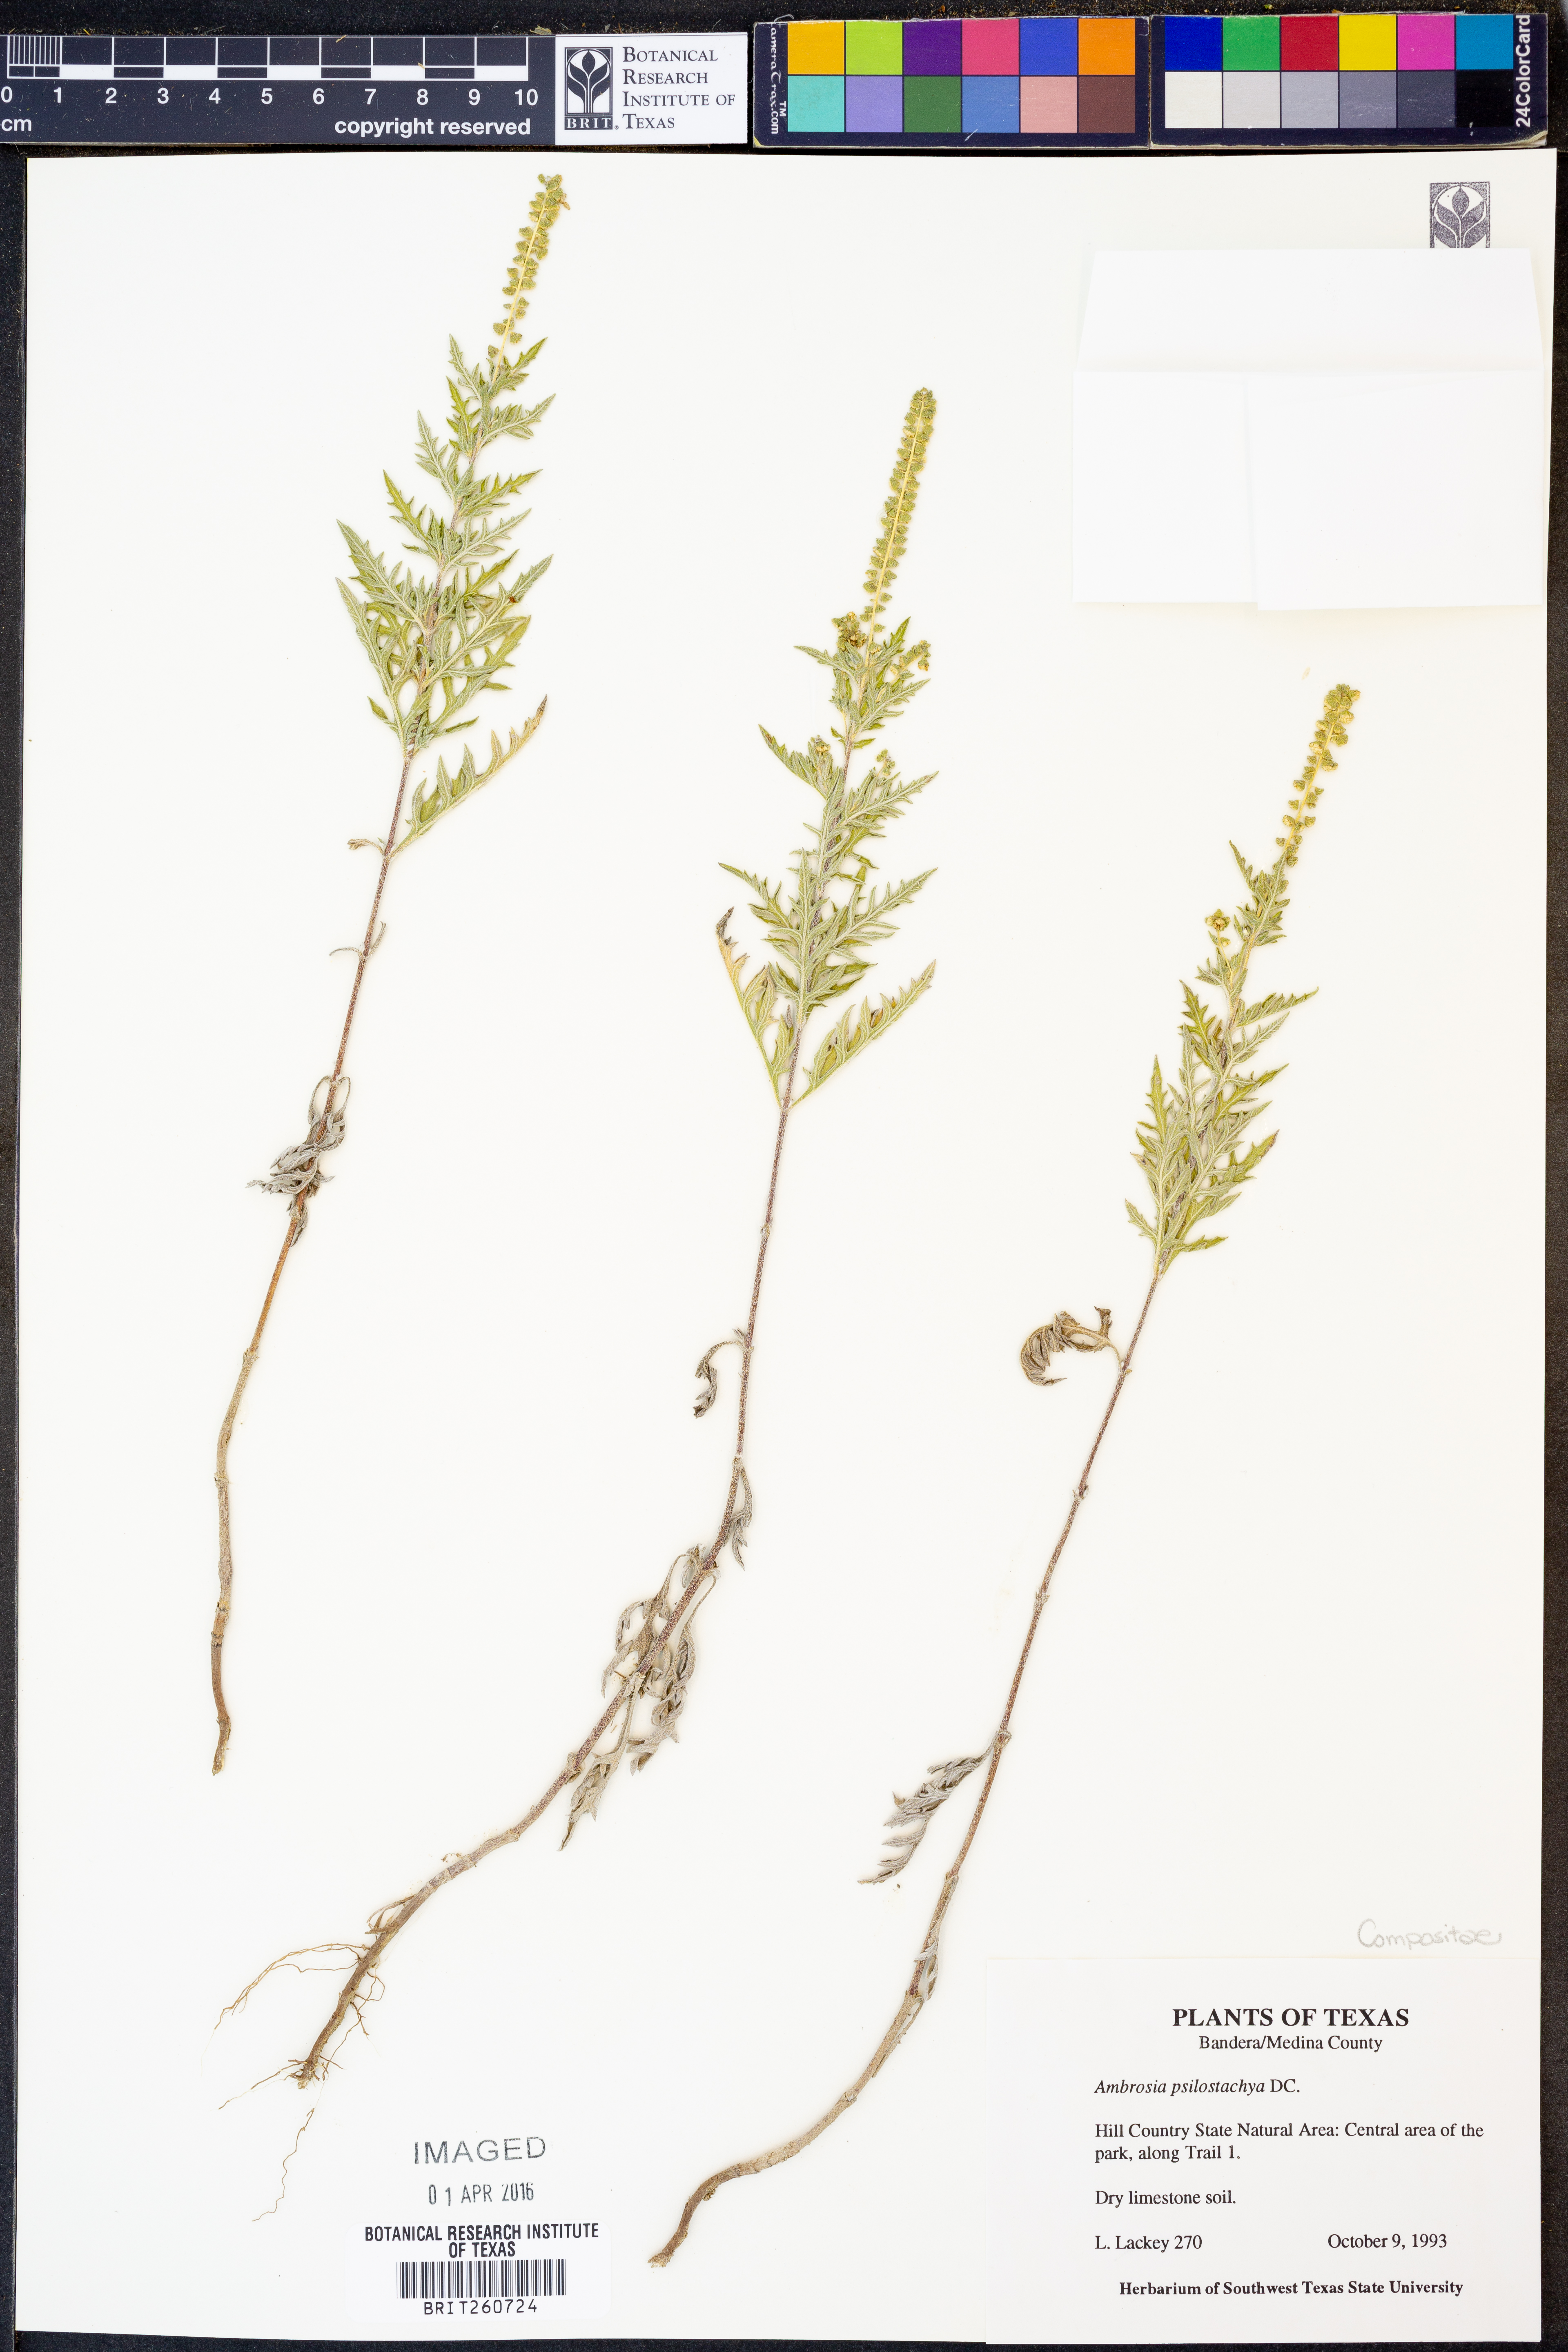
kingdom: Plantae
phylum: Tracheophyta
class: Magnoliopsida
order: Asterales
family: Asteraceae
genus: Ambrosia
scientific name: Ambrosia psilostachya
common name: Perennial ragweed
